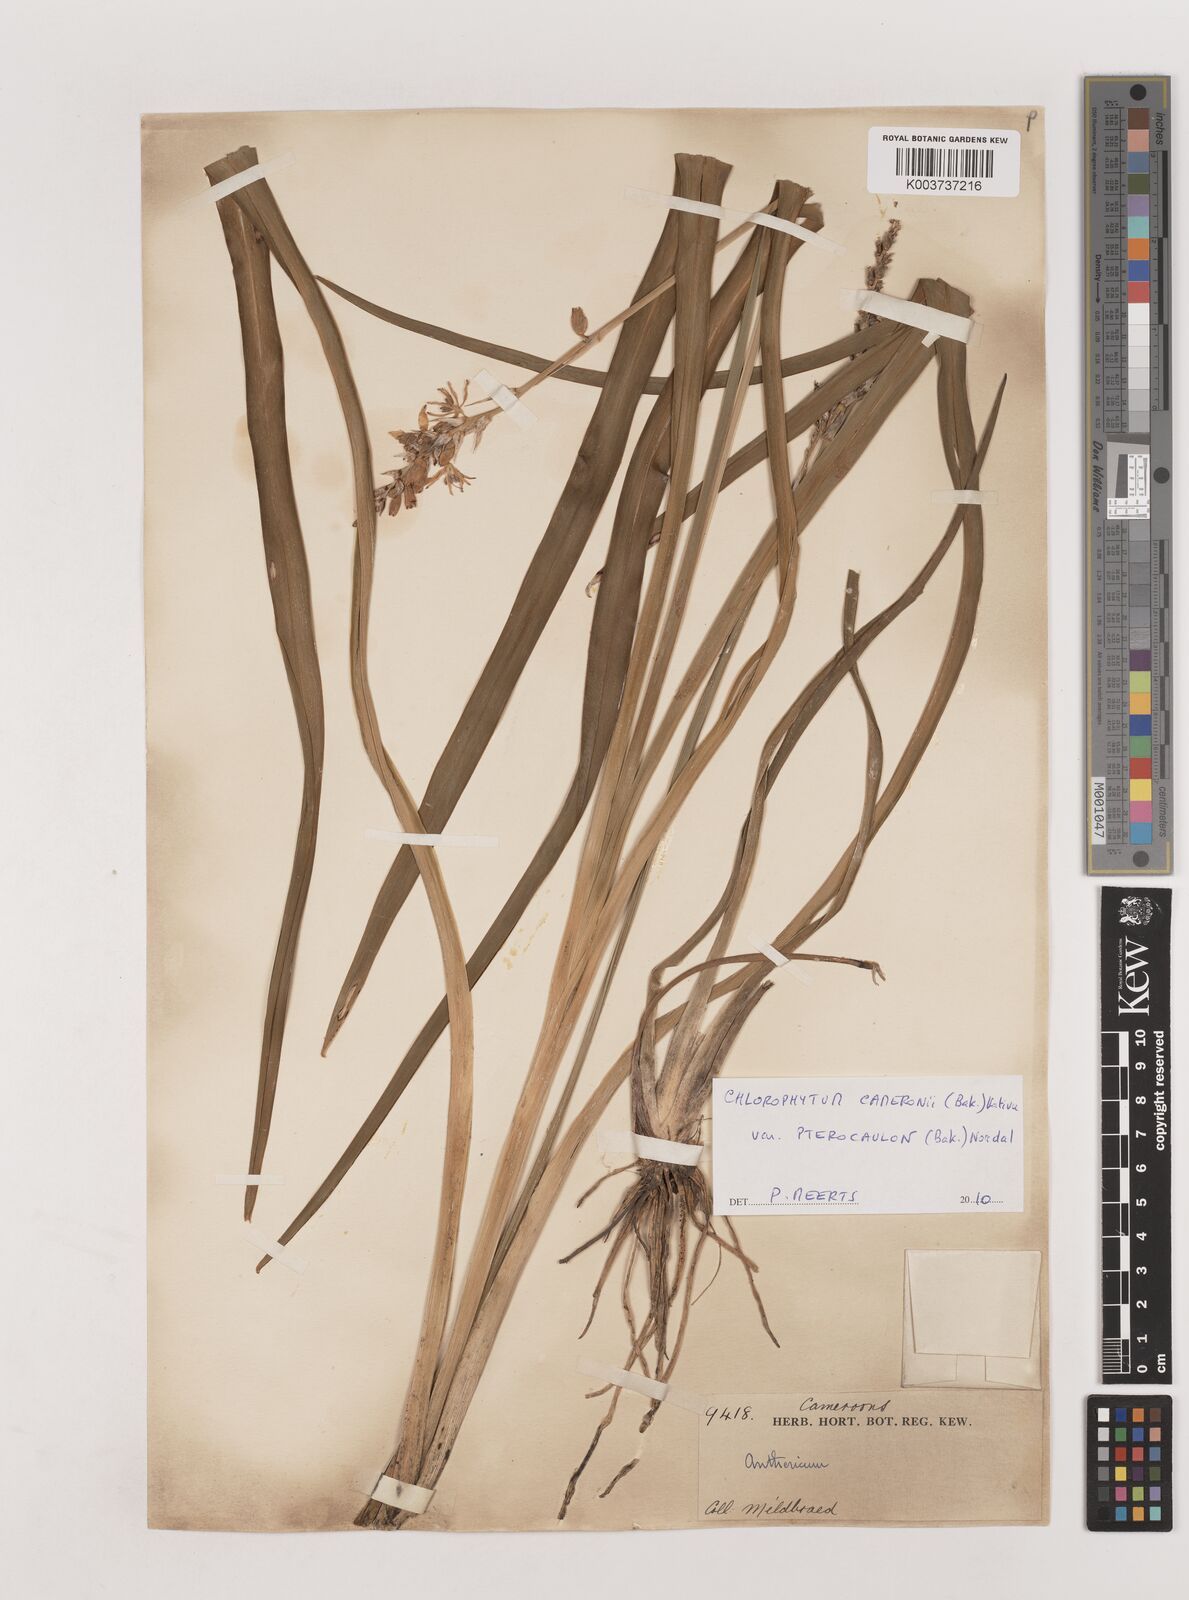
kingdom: Plantae
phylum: Tracheophyta
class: Liliopsida
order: Asparagales
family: Asparagaceae
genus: Chlorophytum
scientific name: Chlorophytum cameronii
